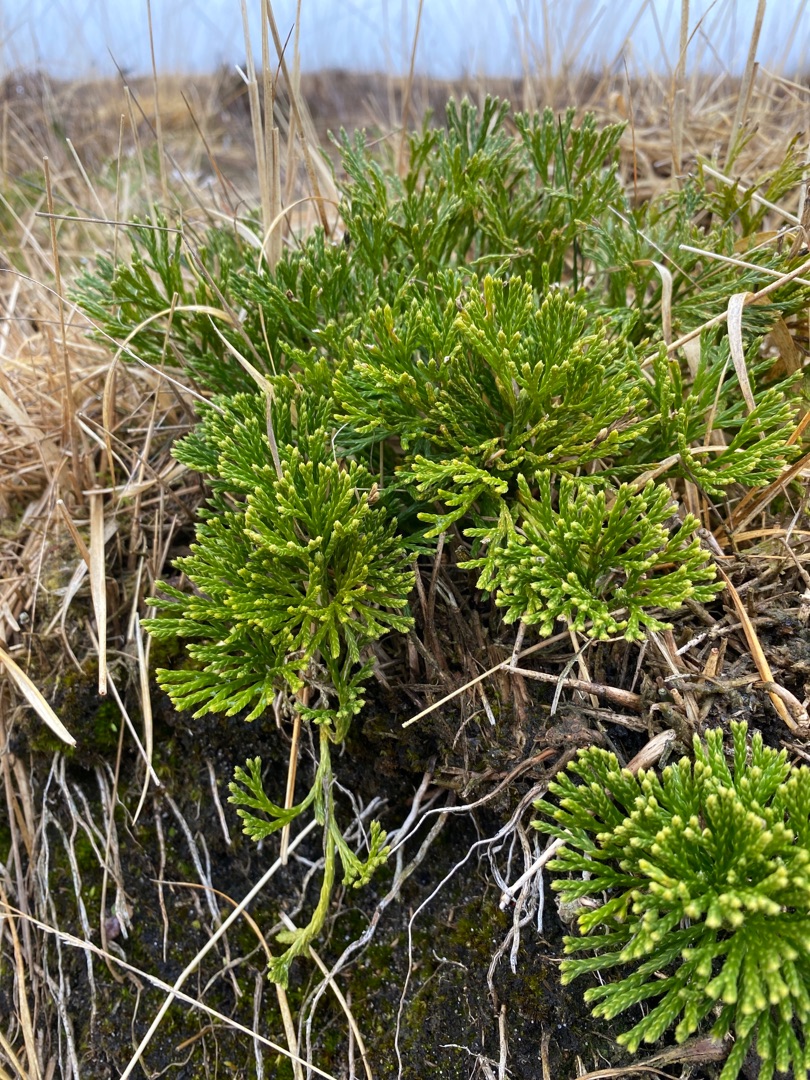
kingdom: Plantae
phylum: Tracheophyta
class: Lycopodiopsida
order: Lycopodiales
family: Lycopodiaceae
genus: Diphasiastrum
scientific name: Diphasiastrum tristachyum
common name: Cypres-ulvefod
